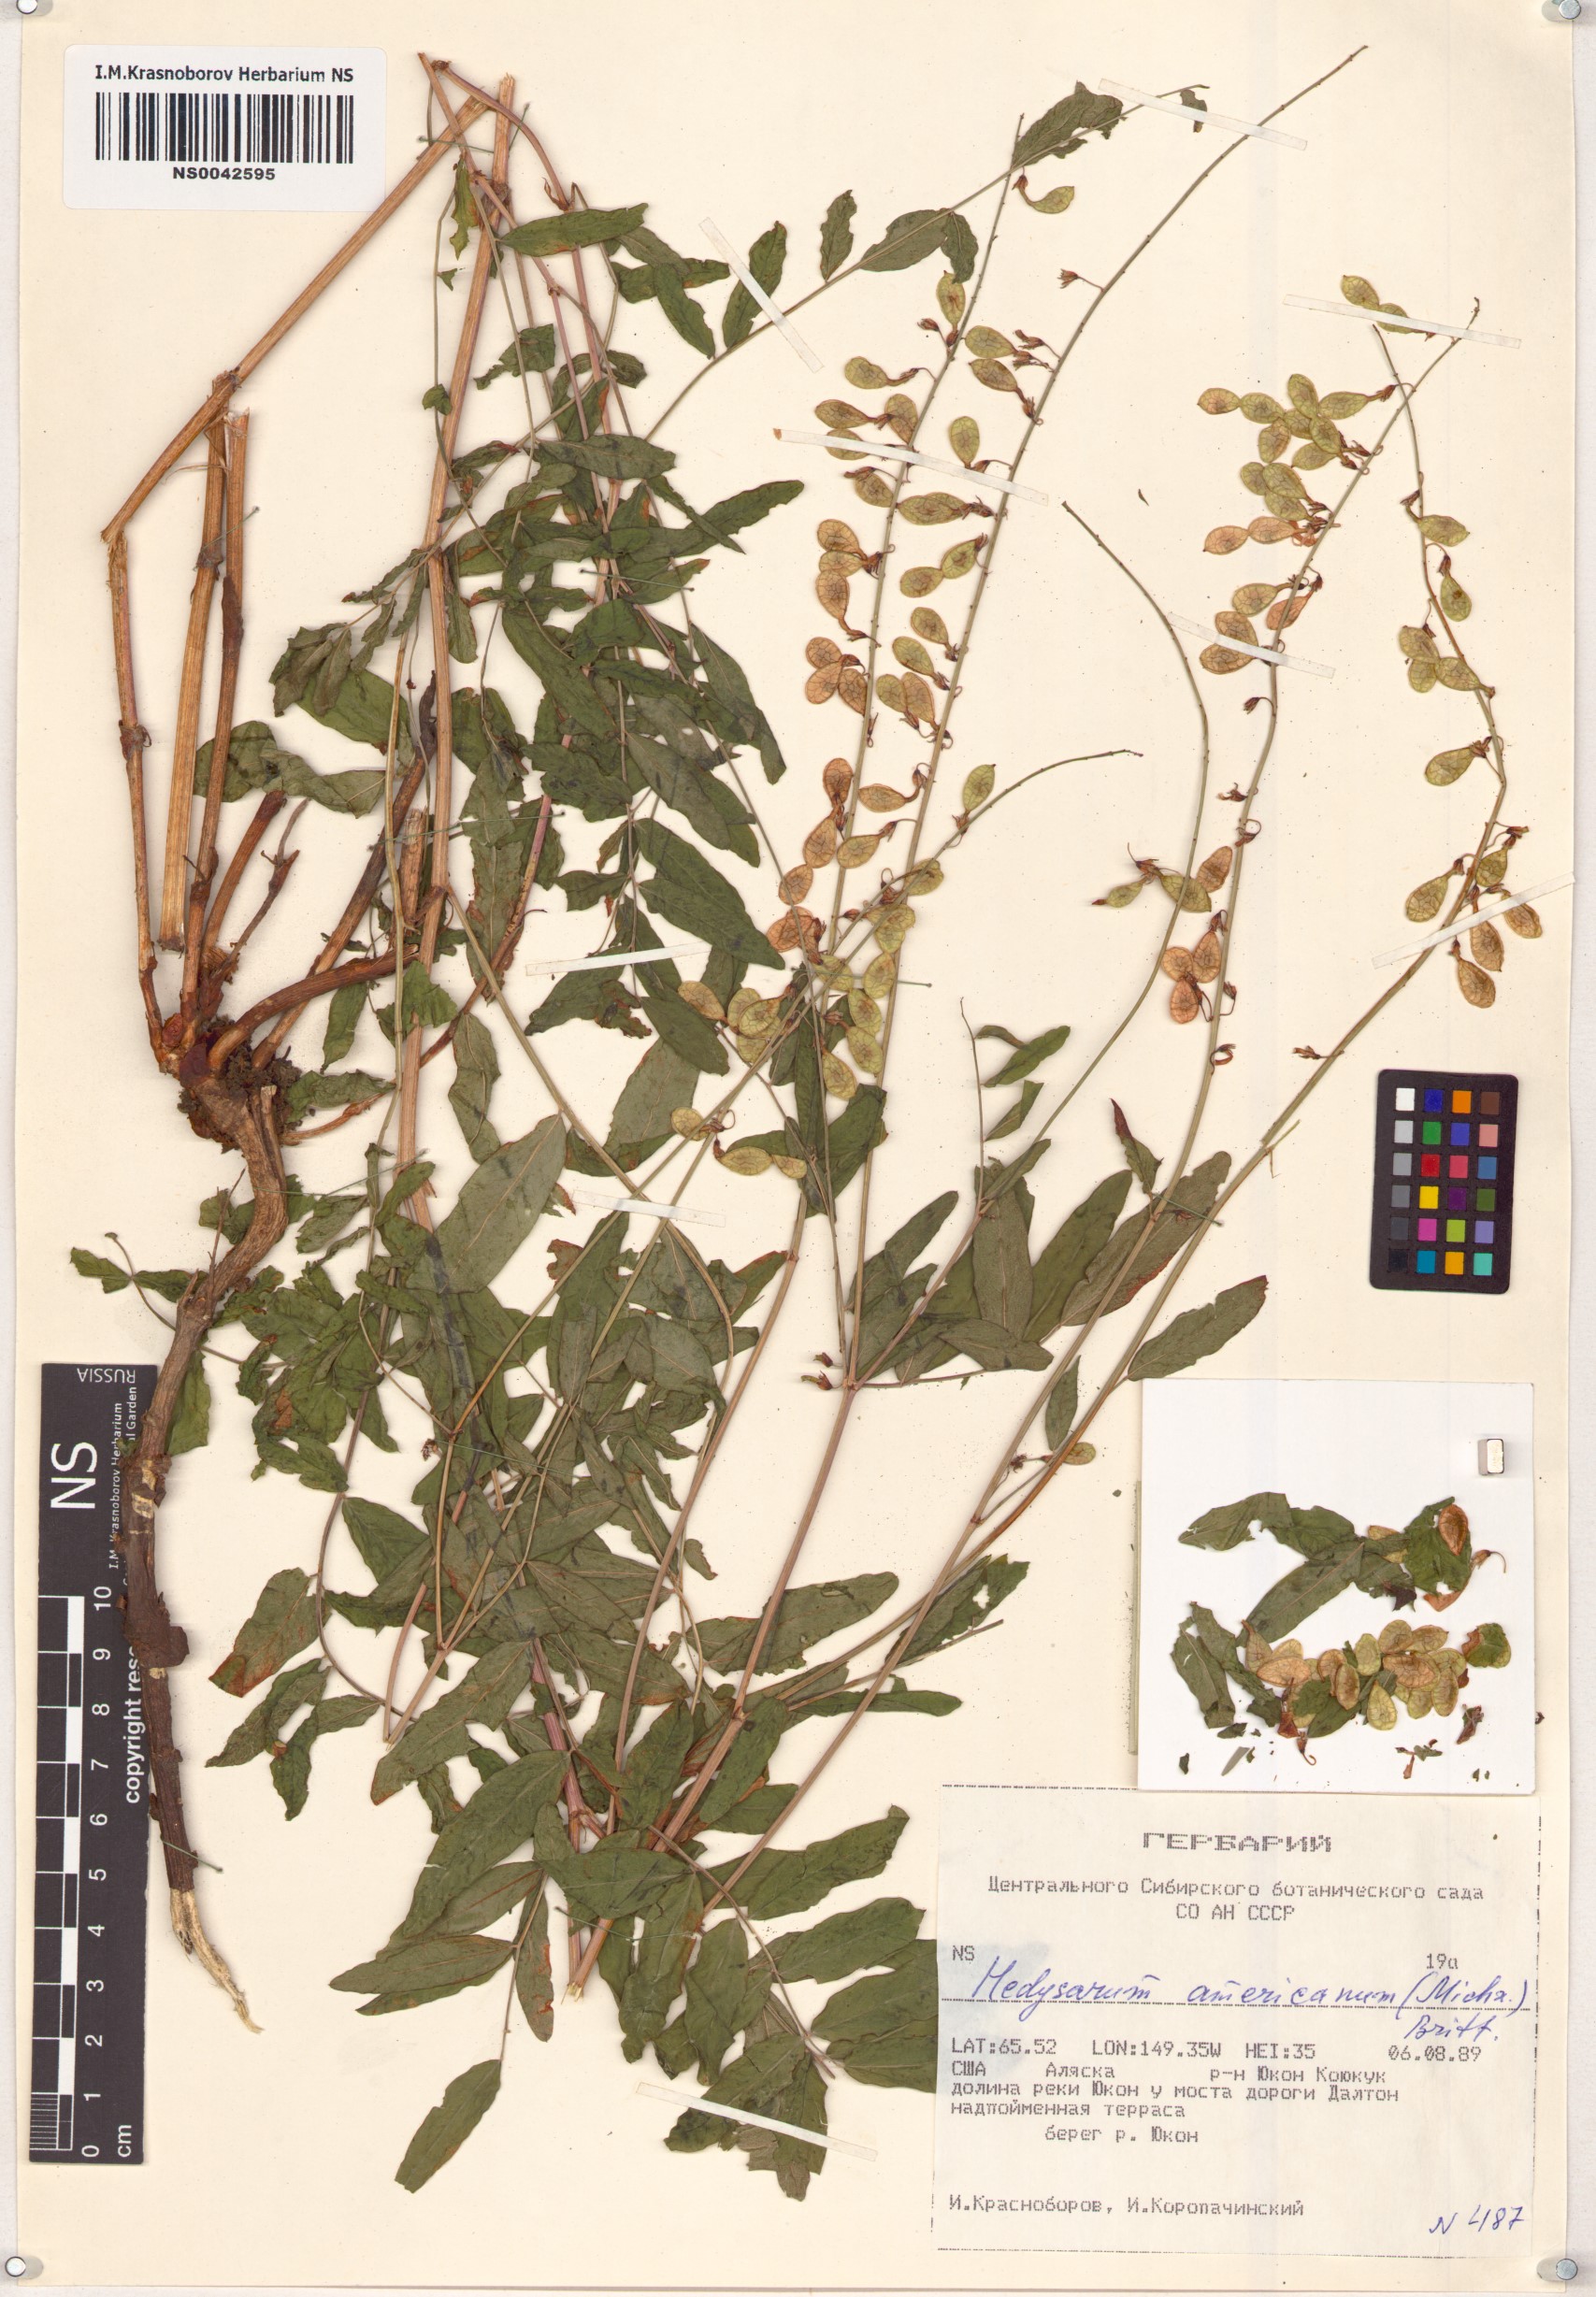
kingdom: Plantae
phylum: Tracheophyta
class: Magnoliopsida
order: Fabales
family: Fabaceae
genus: Hedysarum
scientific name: Hedysarum americanum
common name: Alpine hedysarum
